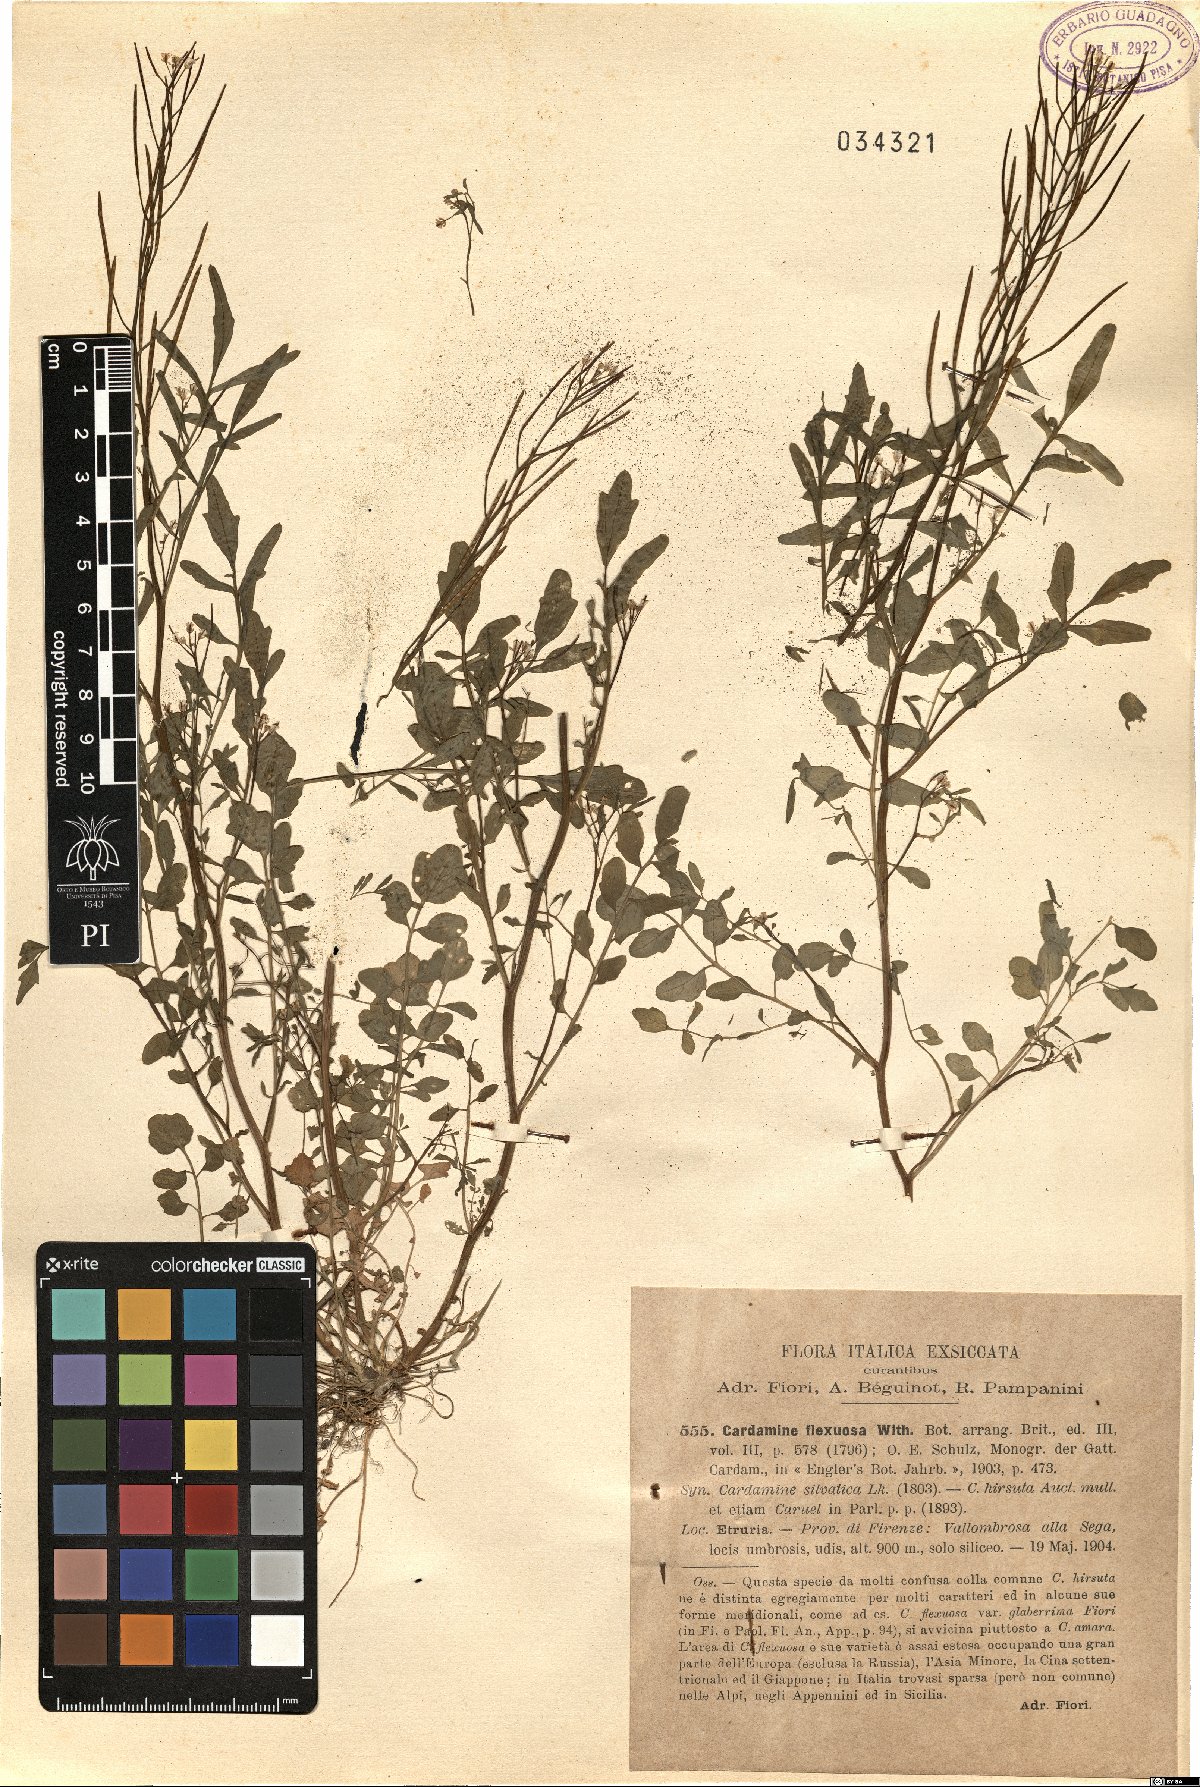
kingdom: Plantae
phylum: Tracheophyta
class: Magnoliopsida
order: Brassicales
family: Brassicaceae
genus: Cardamine
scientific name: Cardamine flexuosa
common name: Woodland bittercress
